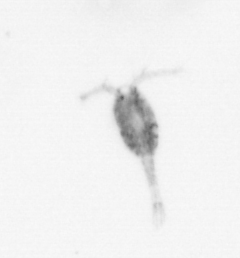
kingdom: Animalia
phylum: Arthropoda
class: Copepoda
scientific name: Copepoda
